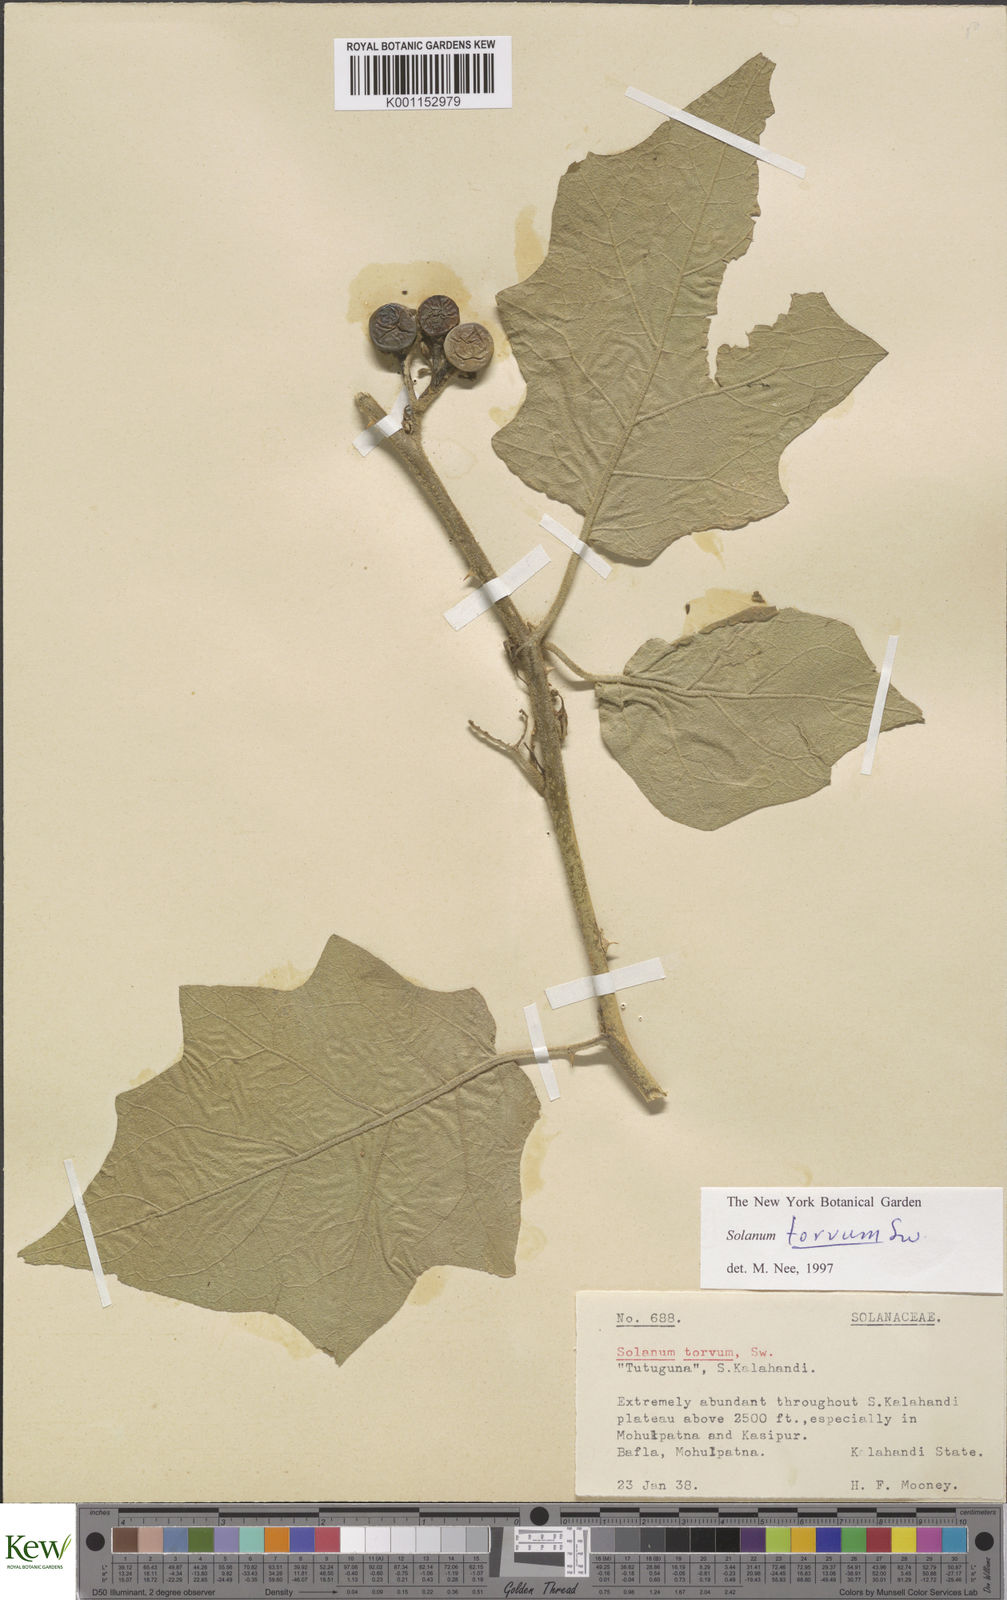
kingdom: Plantae
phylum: Tracheophyta
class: Magnoliopsida
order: Solanales
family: Solanaceae
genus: Solanum
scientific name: Solanum torvum
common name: Turkey berry
